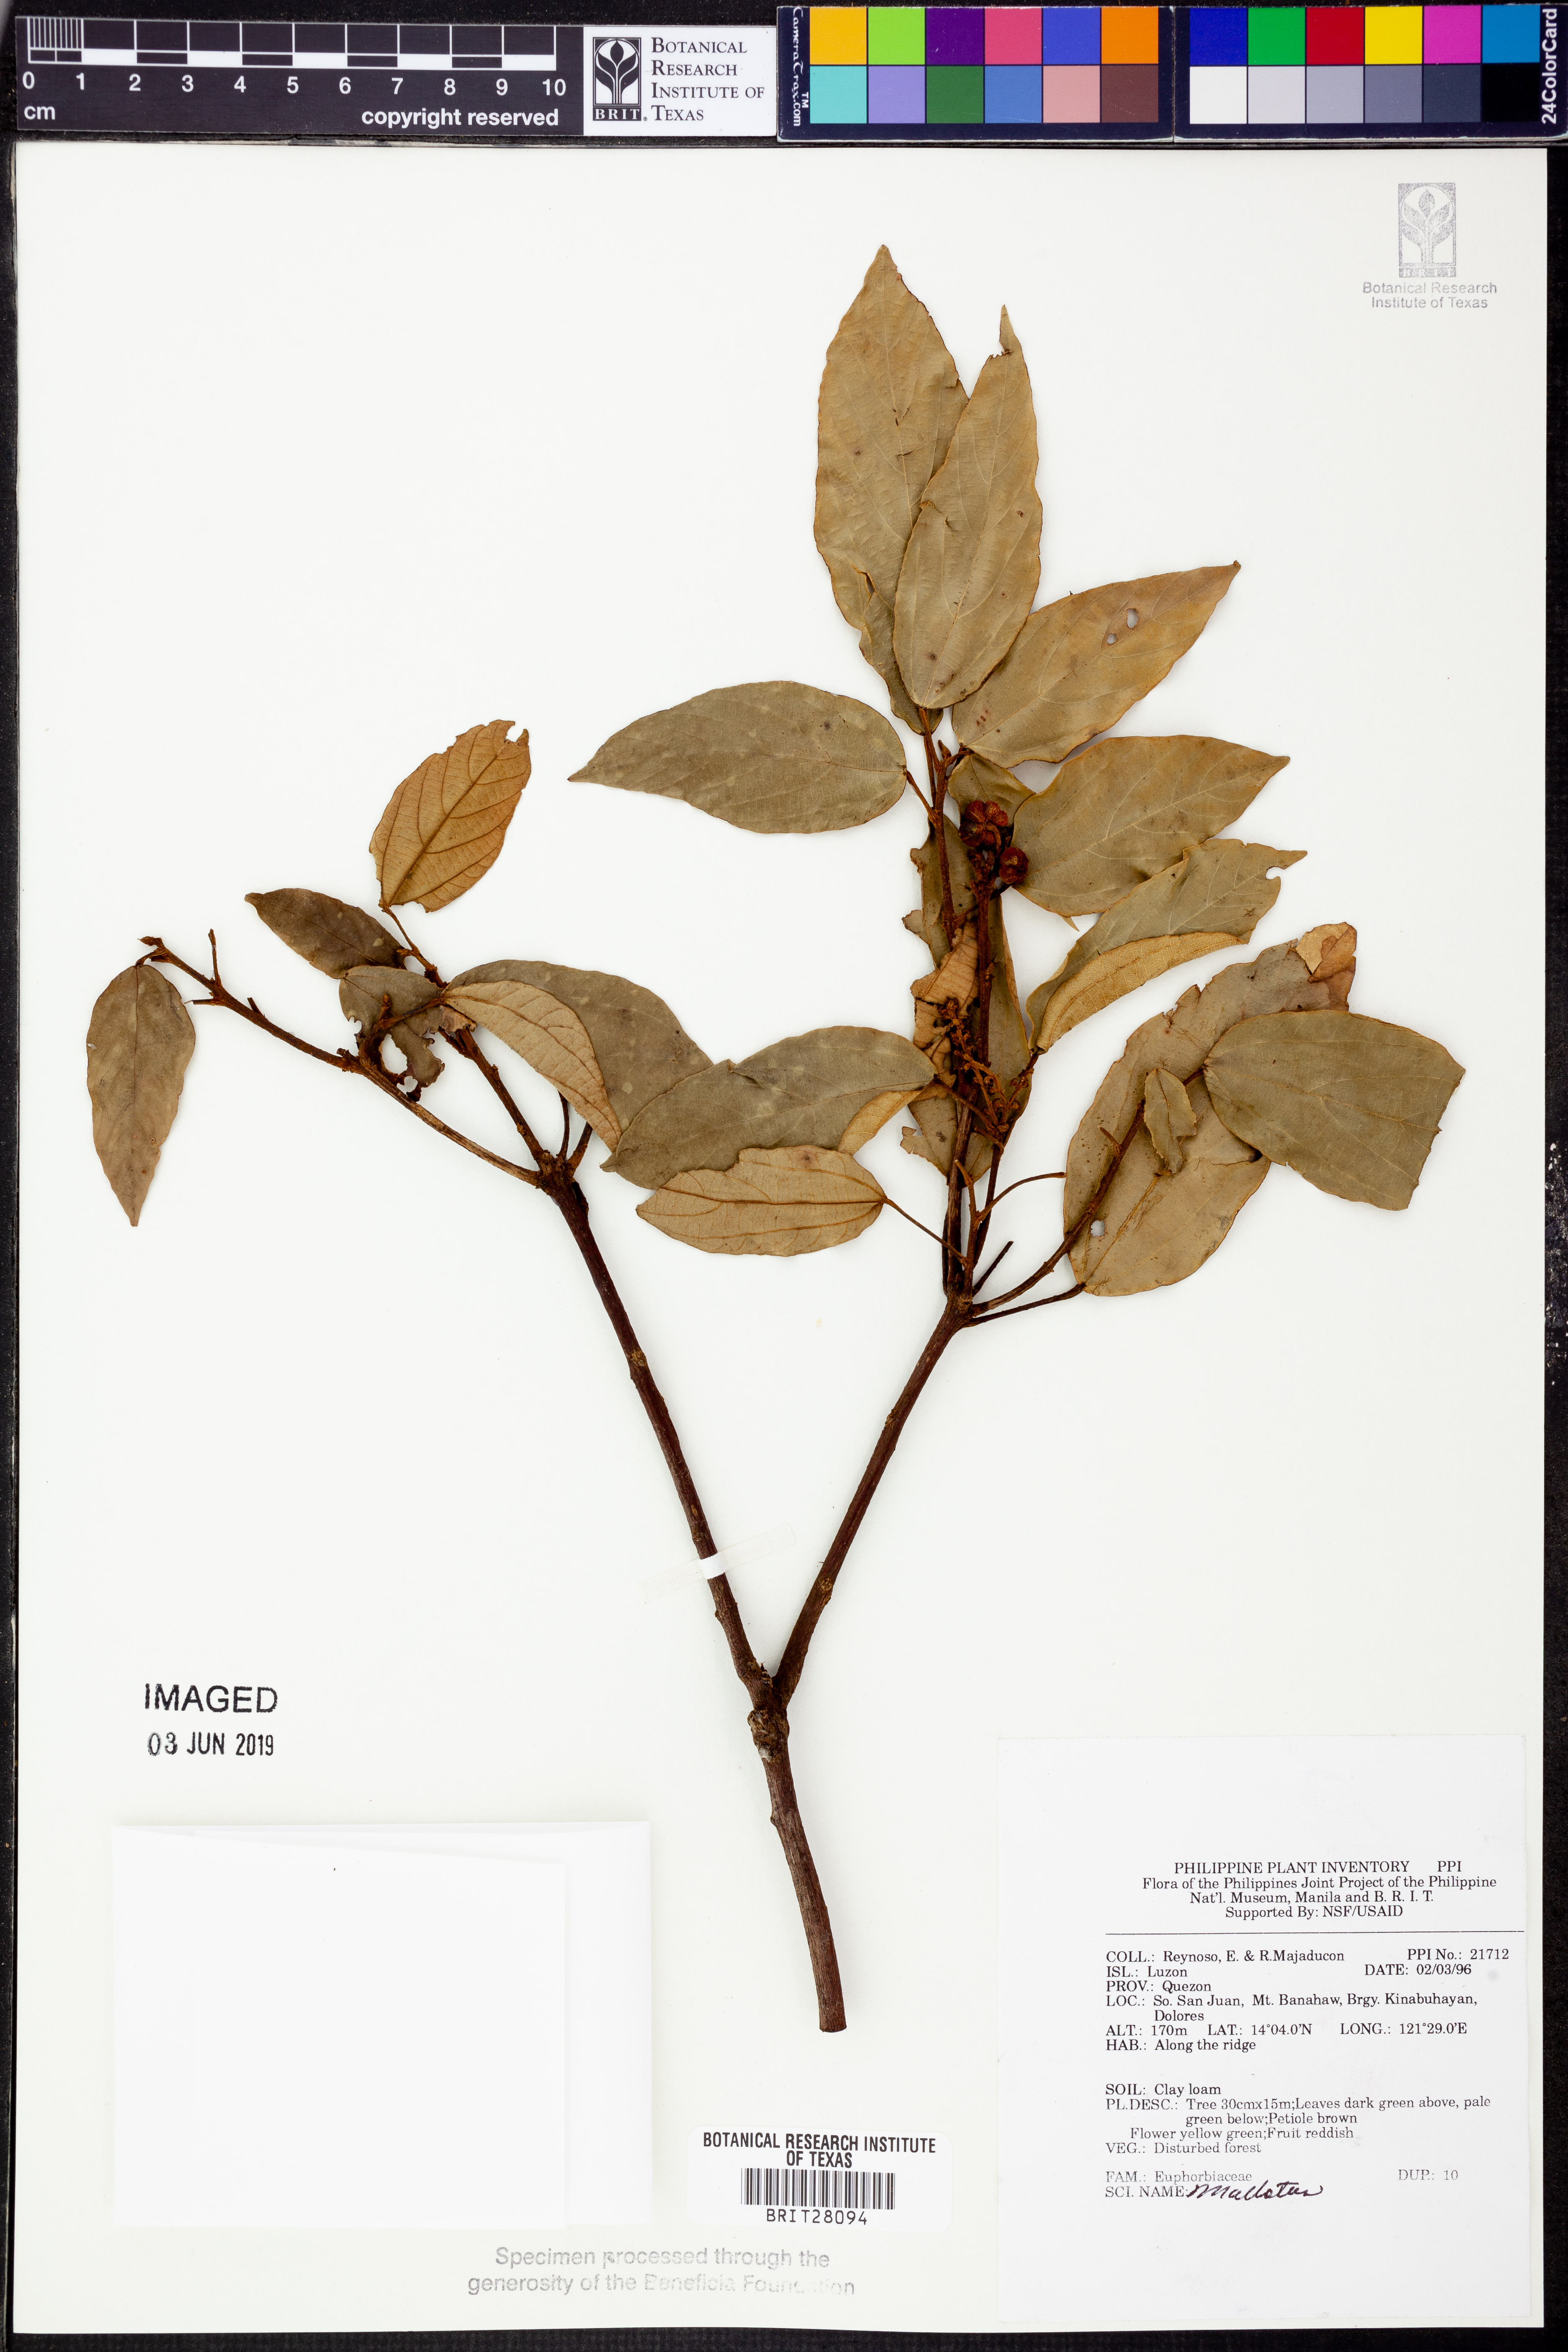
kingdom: Plantae
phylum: Tracheophyta
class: Magnoliopsida
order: Malpighiales
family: Euphorbiaceae
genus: Mallotus
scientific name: Mallotus
